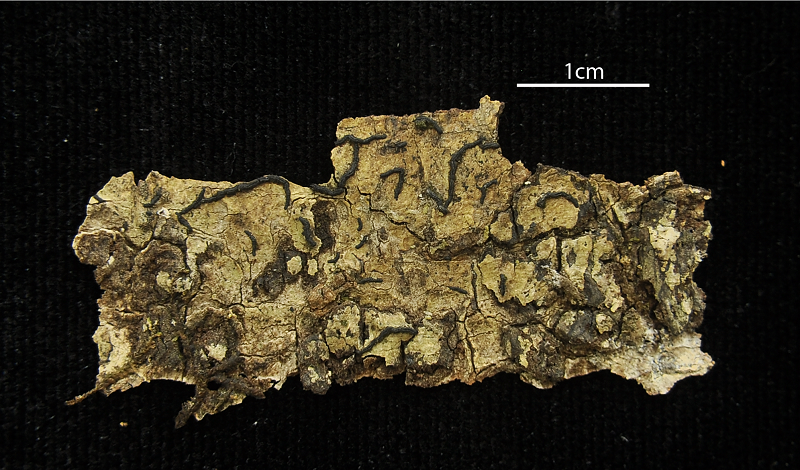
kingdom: Fungi
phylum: Ascomycota
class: Arthoniomycetes
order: Arthoniales
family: Opegraphaceae
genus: Opegrapha
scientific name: Opegrapha
